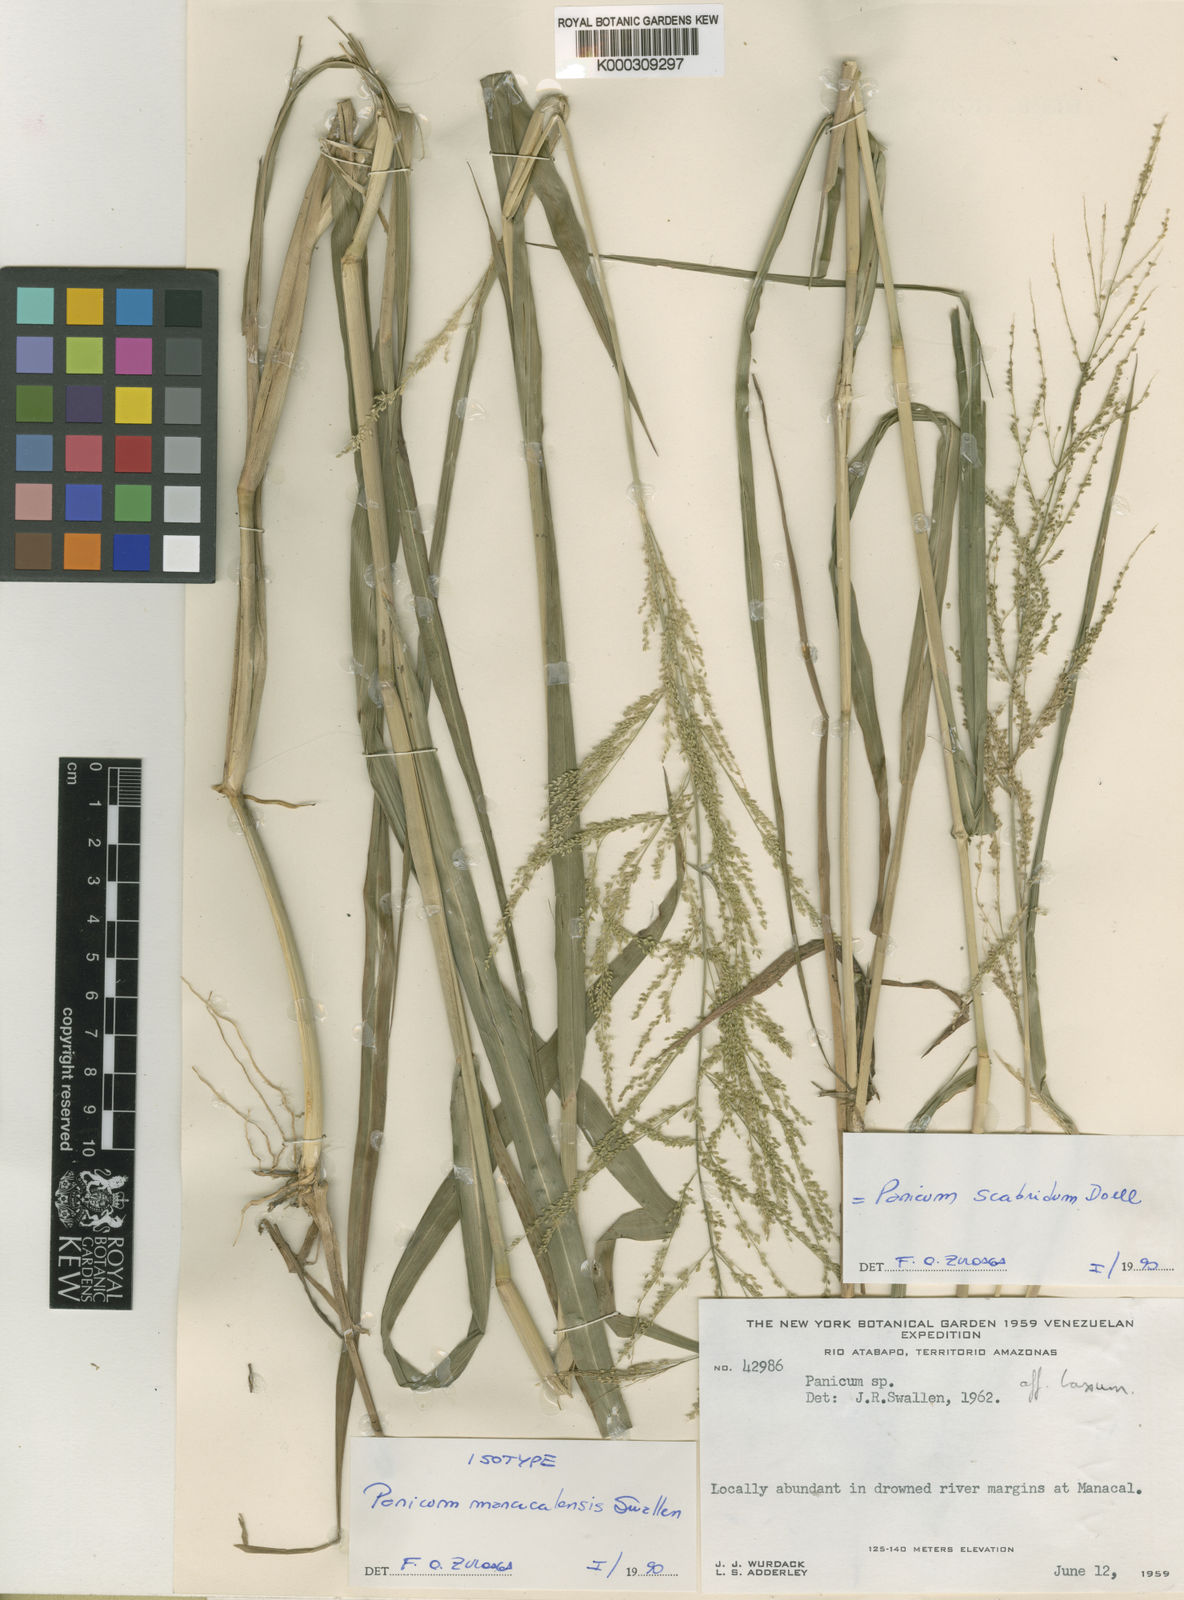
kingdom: Plantae
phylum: Tracheophyta
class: Liliopsida
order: Poales
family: Poaceae
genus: Panicum
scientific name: Panicum
